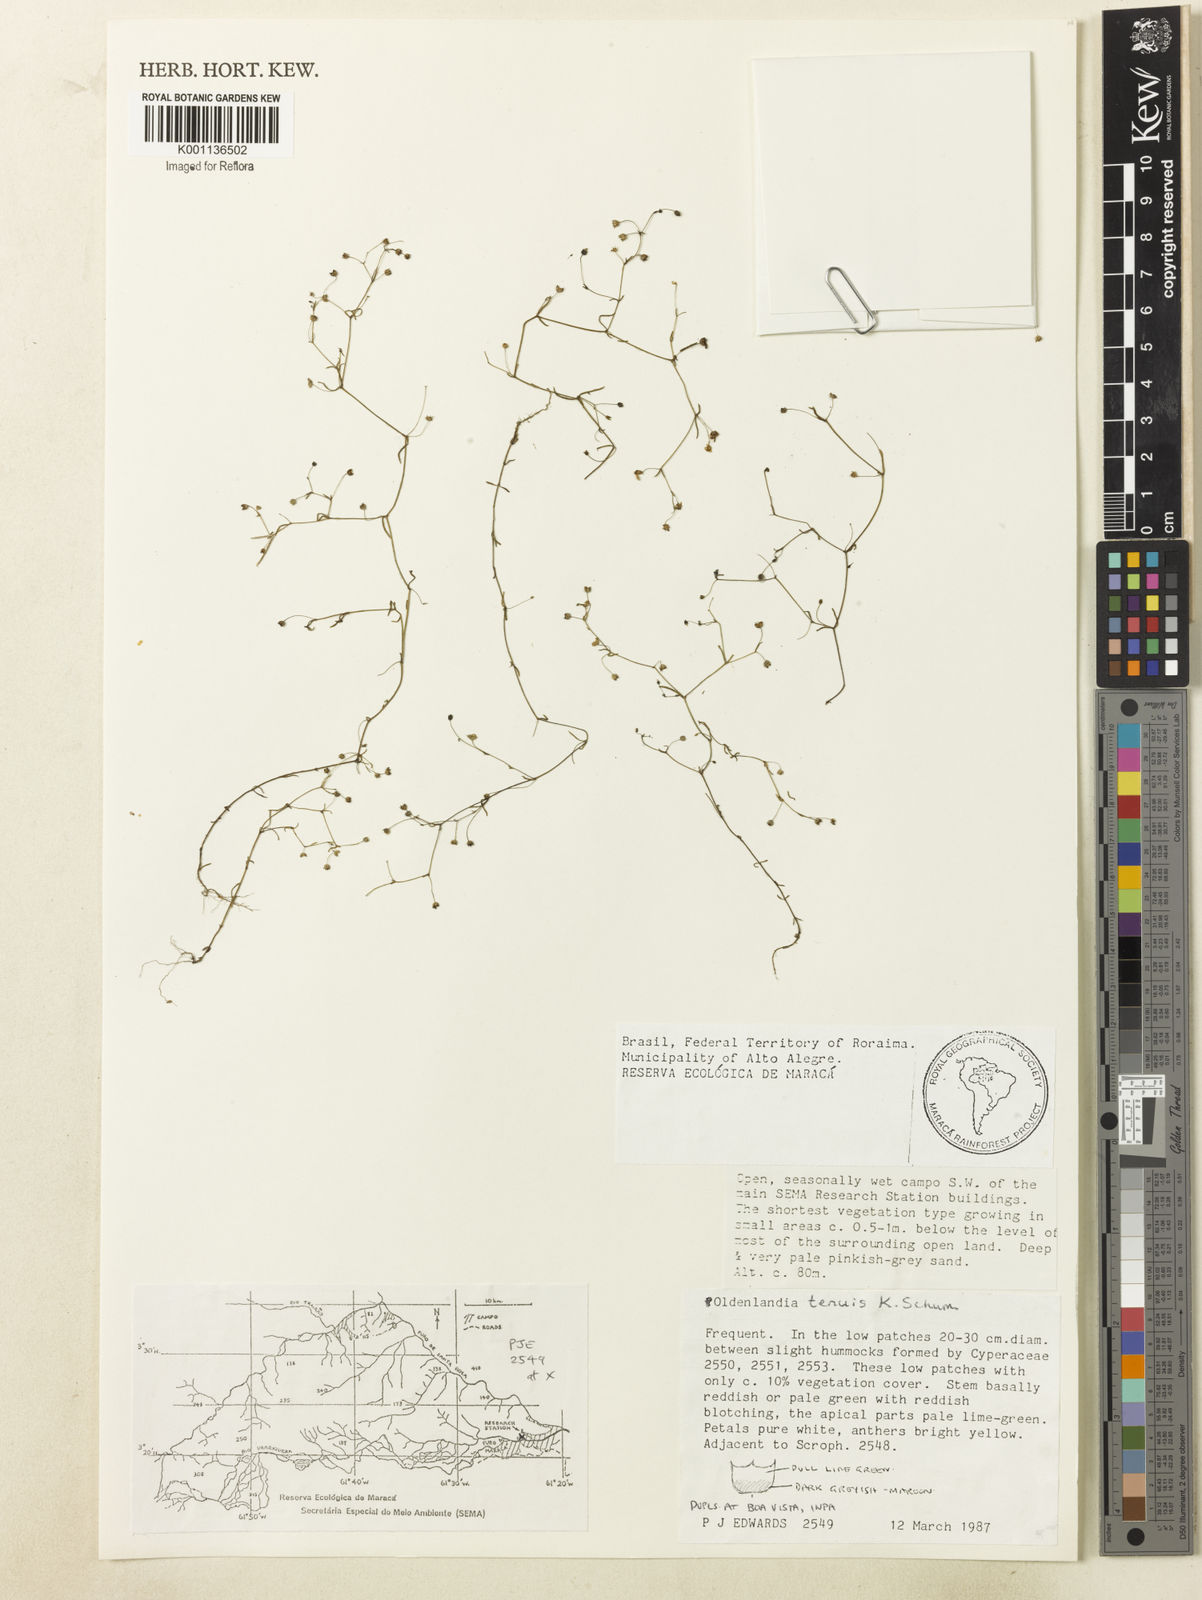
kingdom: Plantae
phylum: Tracheophyta
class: Magnoliopsida
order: Gentianales
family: Rubiaceae
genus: Oldenlandia
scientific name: Oldenlandia tenuis
